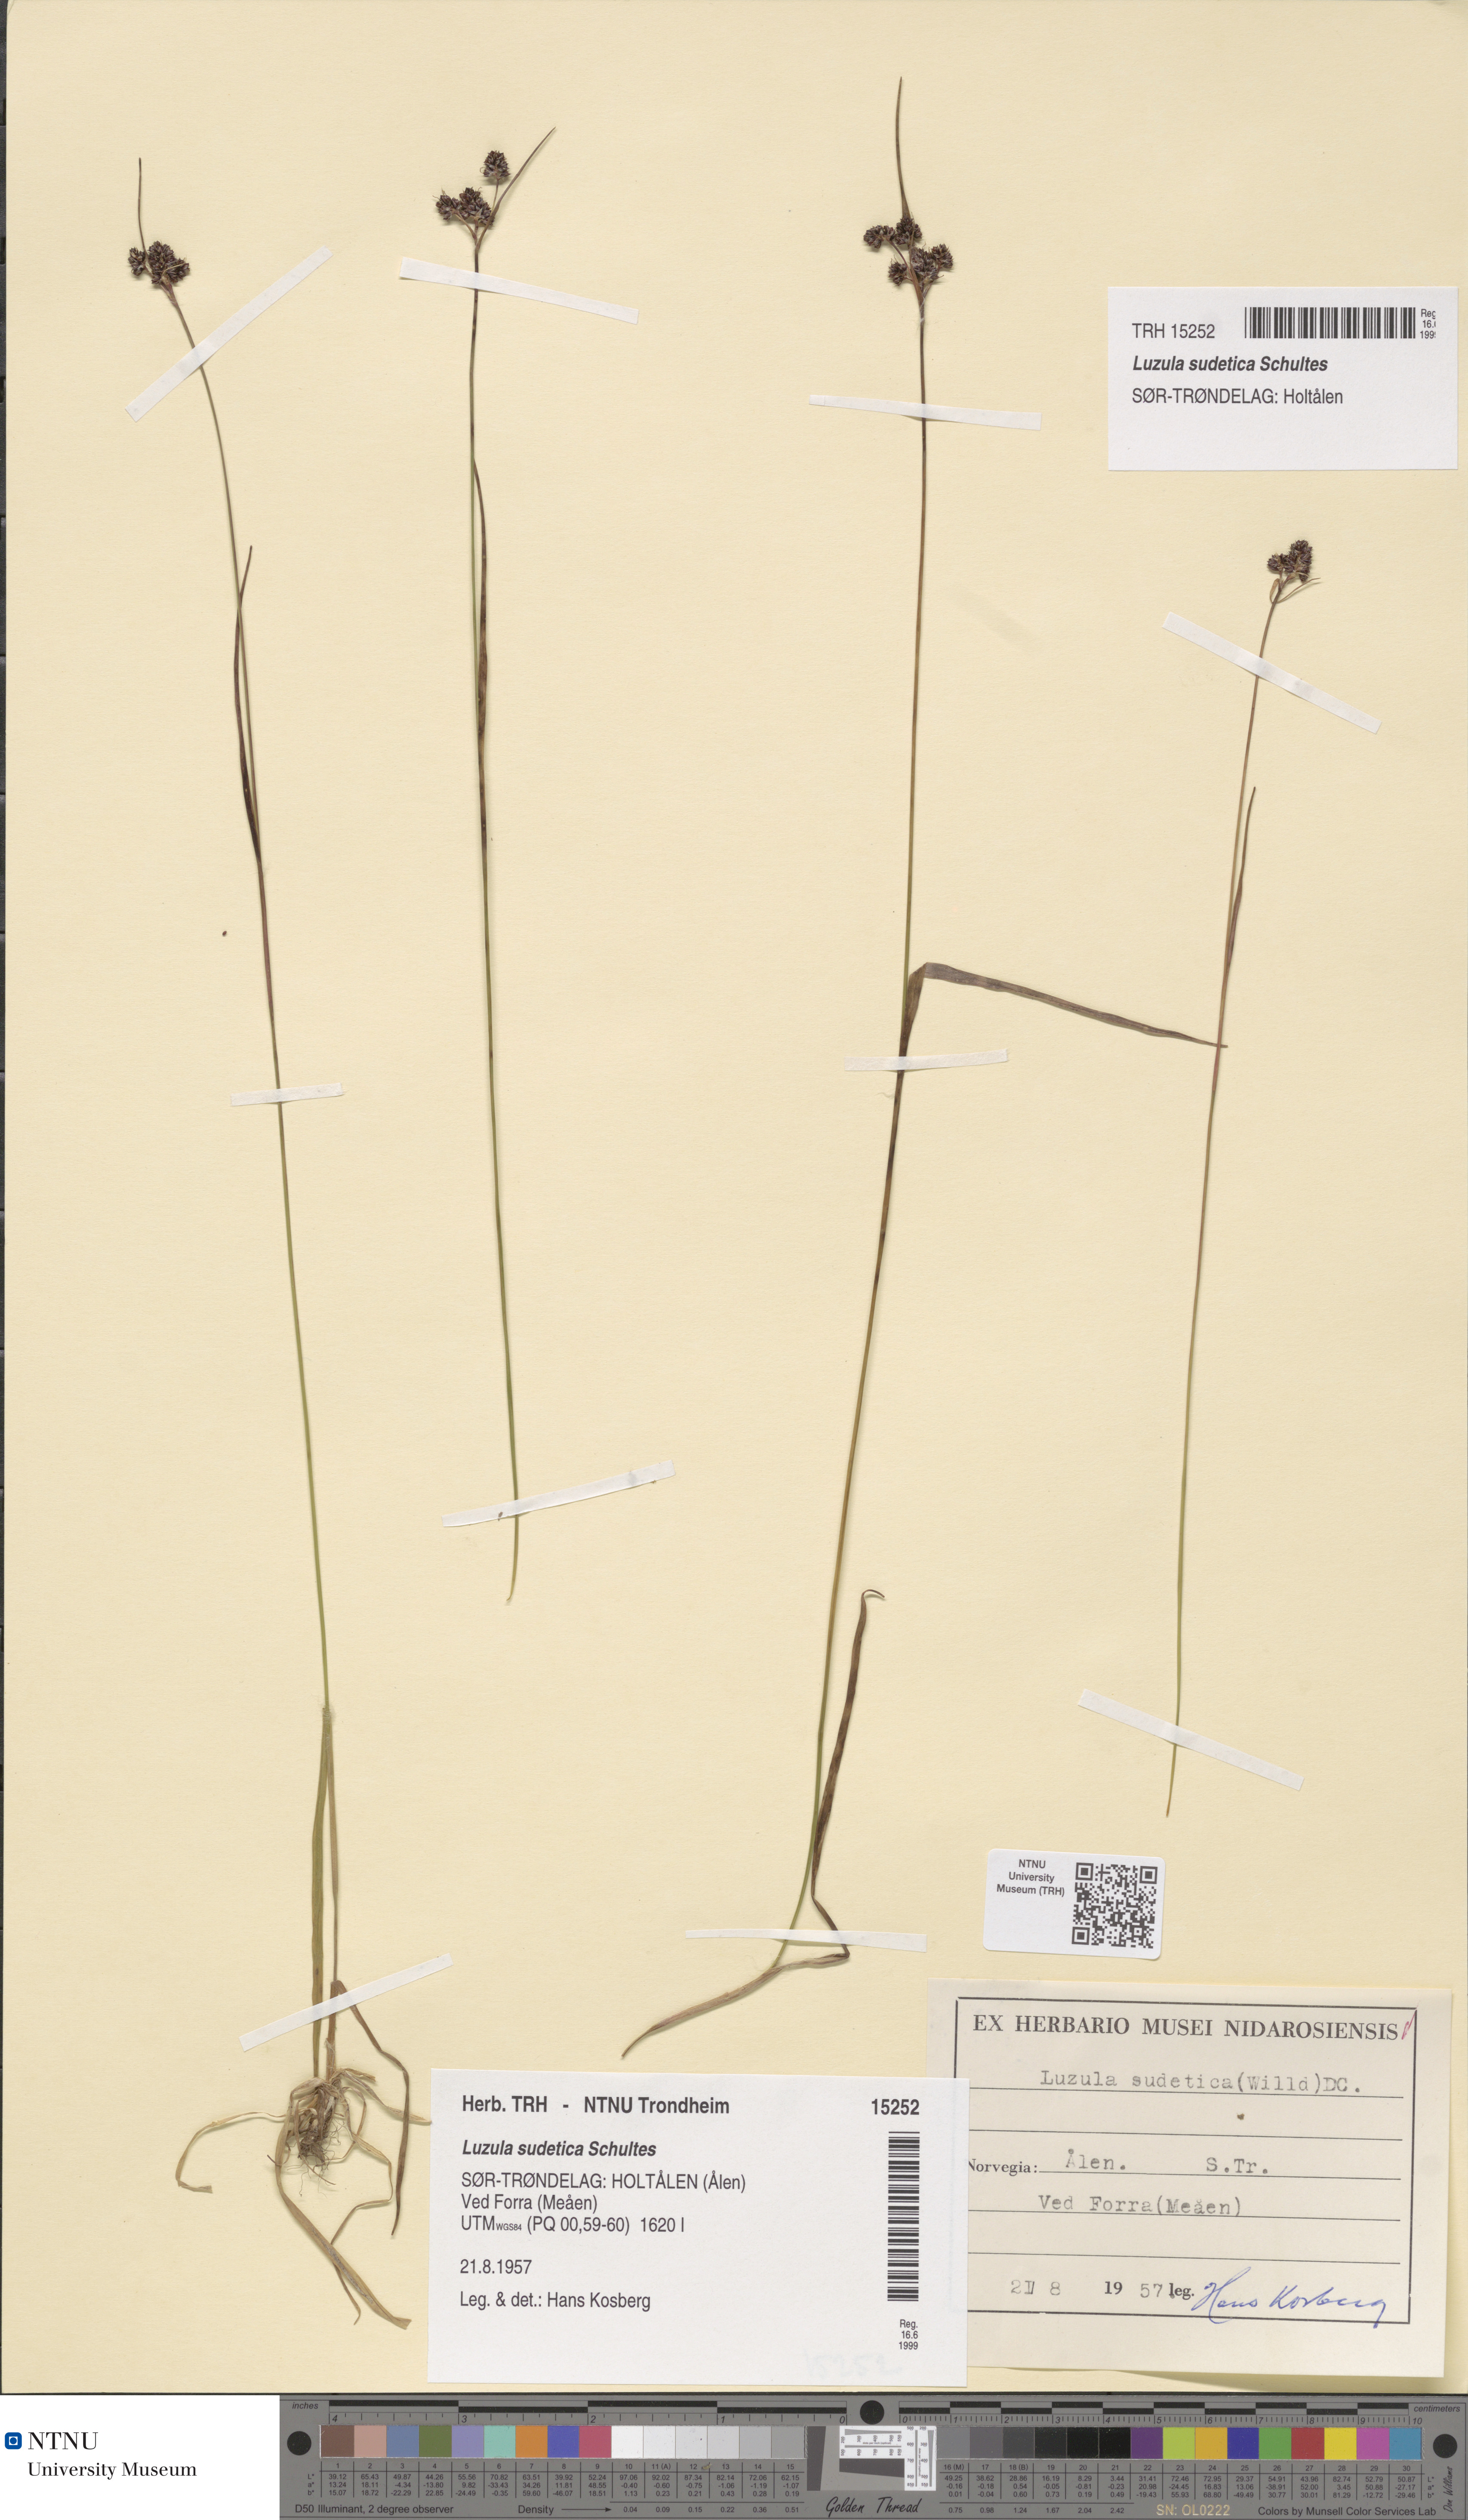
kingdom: Plantae
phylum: Tracheophyta
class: Liliopsida
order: Poales
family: Juncaceae
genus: Luzula
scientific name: Luzula sudetica
